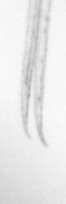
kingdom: Animalia
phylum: Annelida
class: Polychaeta
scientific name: Polychaeta
